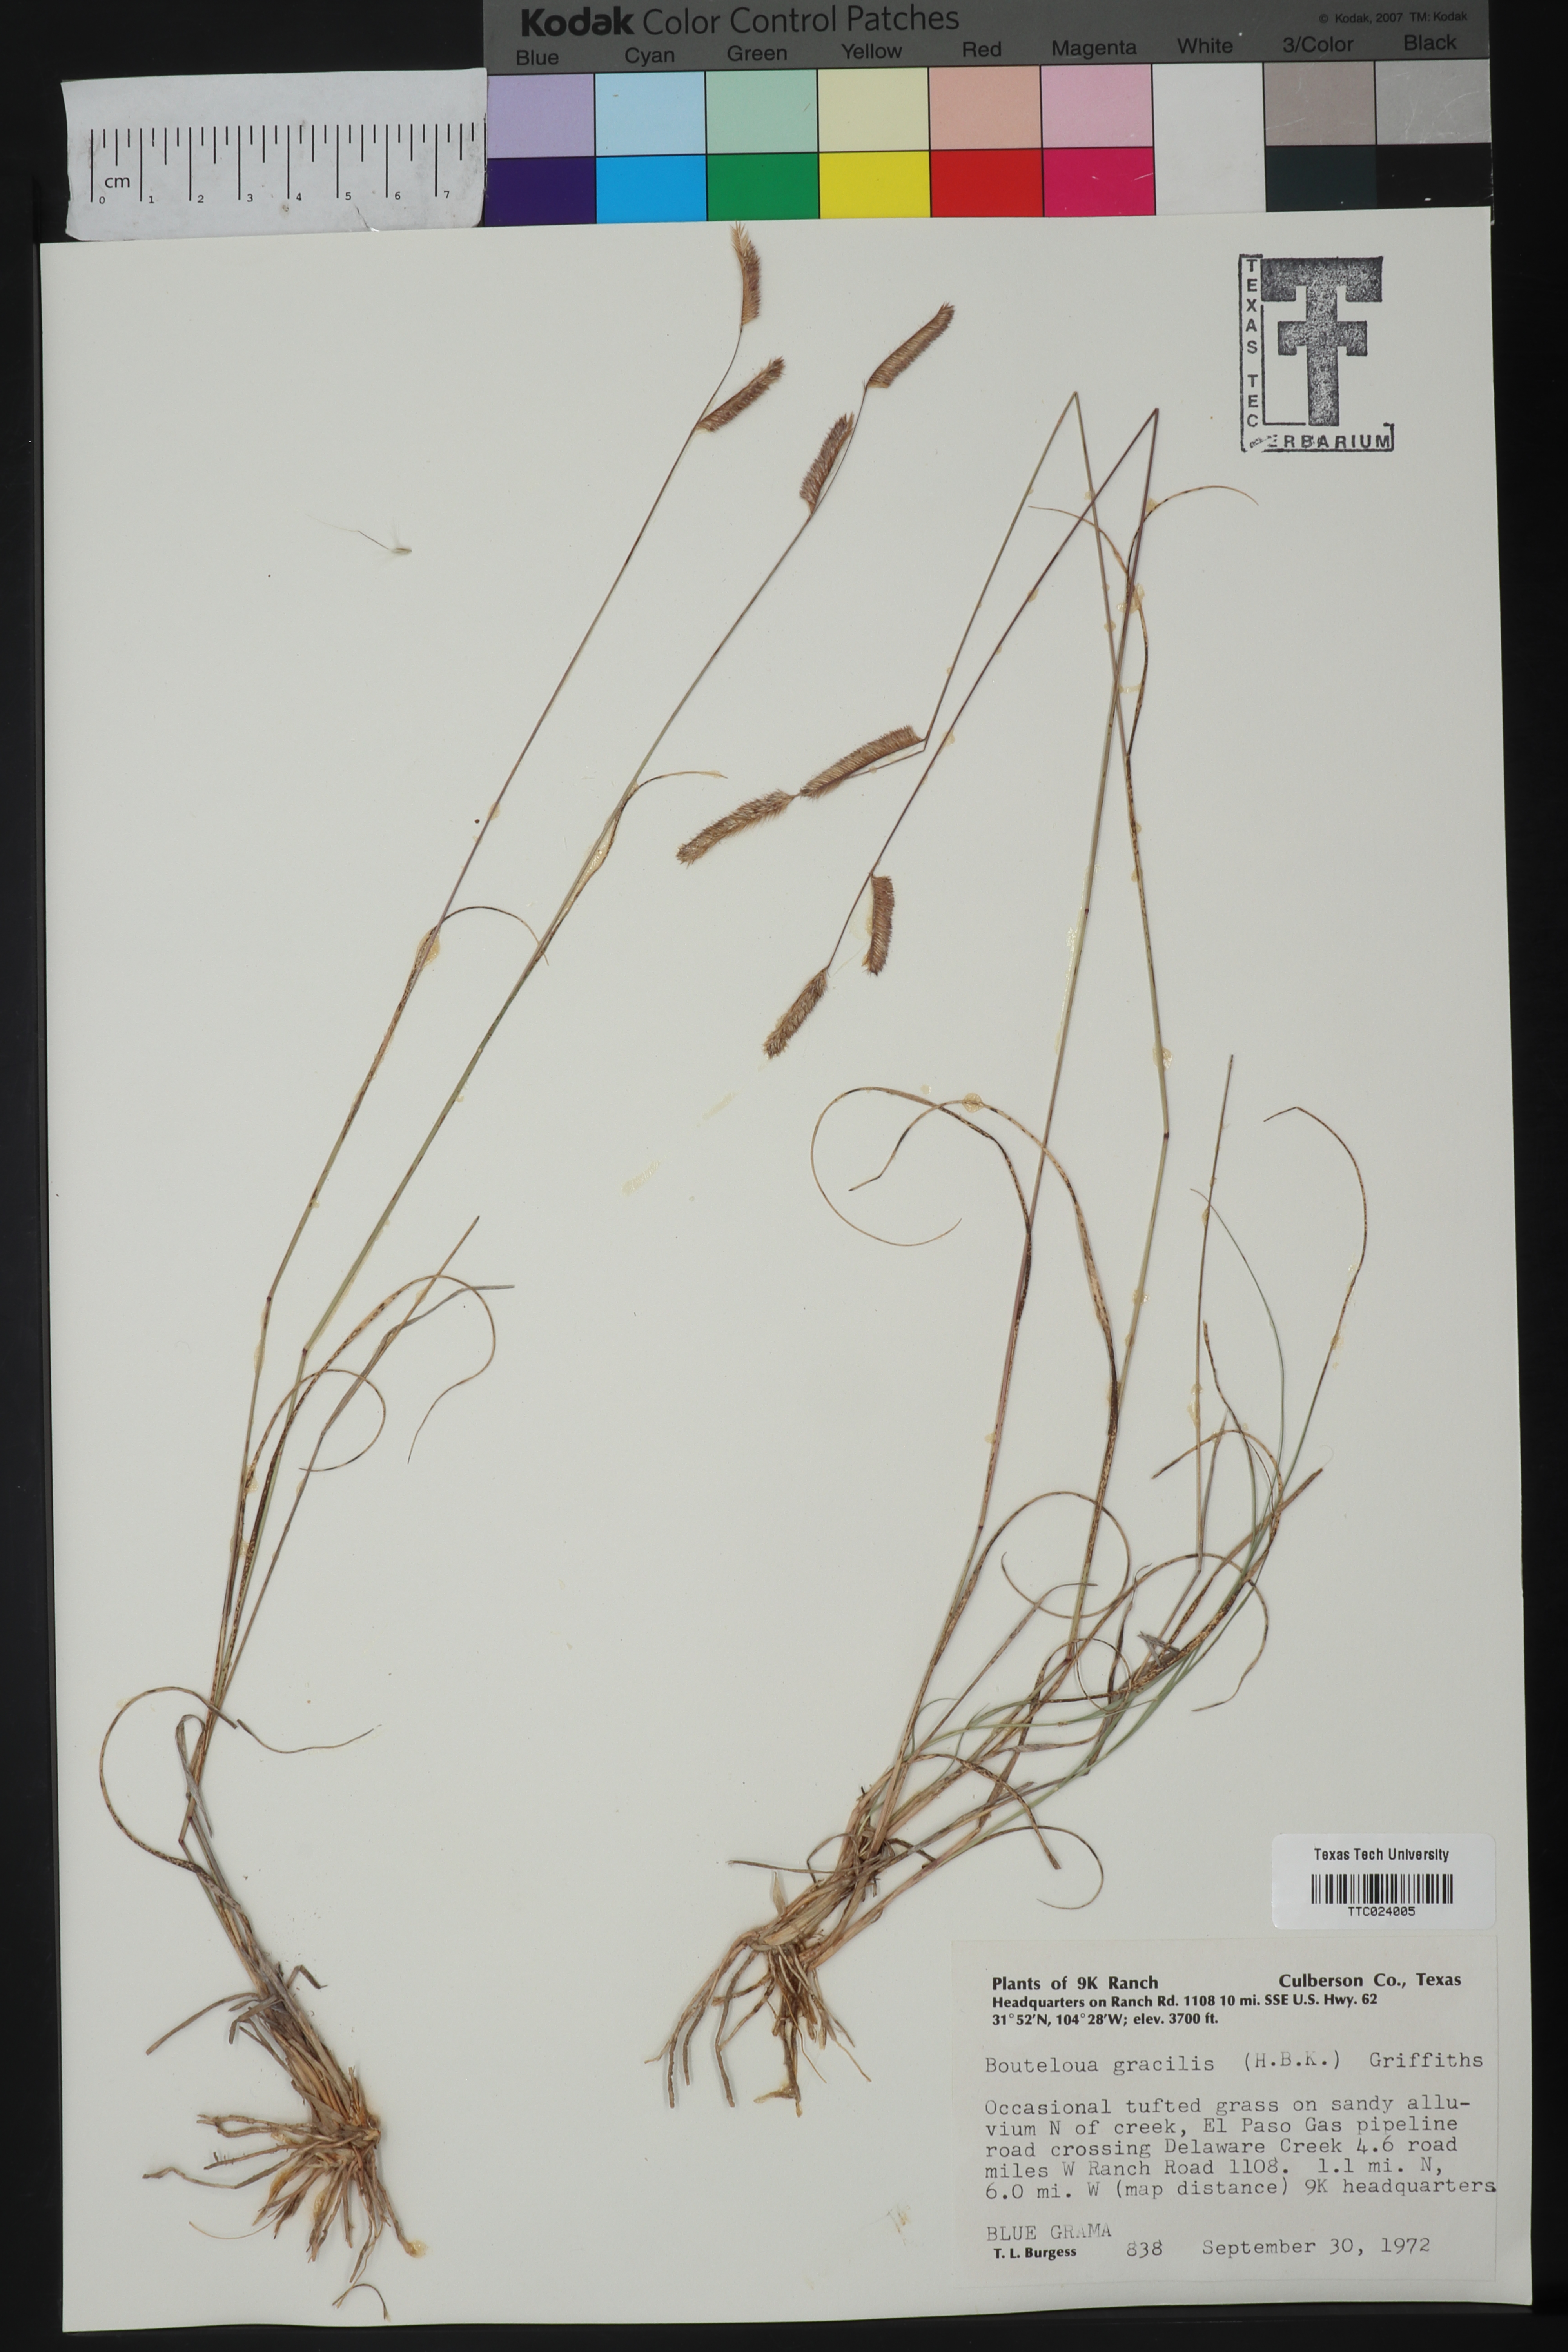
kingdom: Plantae
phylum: Tracheophyta
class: Liliopsida
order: Poales
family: Poaceae
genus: Bouteloua
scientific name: Bouteloua gracilis
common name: Blue grama
